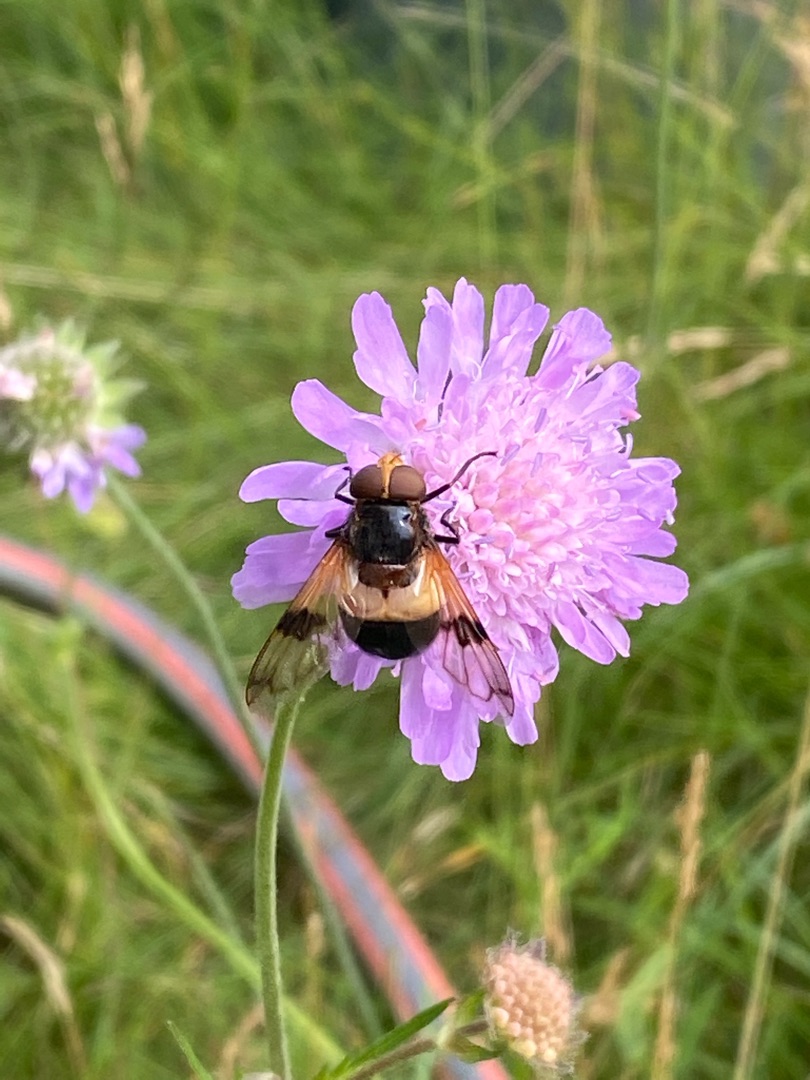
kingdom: Animalia
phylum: Arthropoda
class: Insecta
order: Diptera
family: Syrphidae
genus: Volucella
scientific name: Volucella pellucens
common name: Hvidbåndet humlesvirreflue
